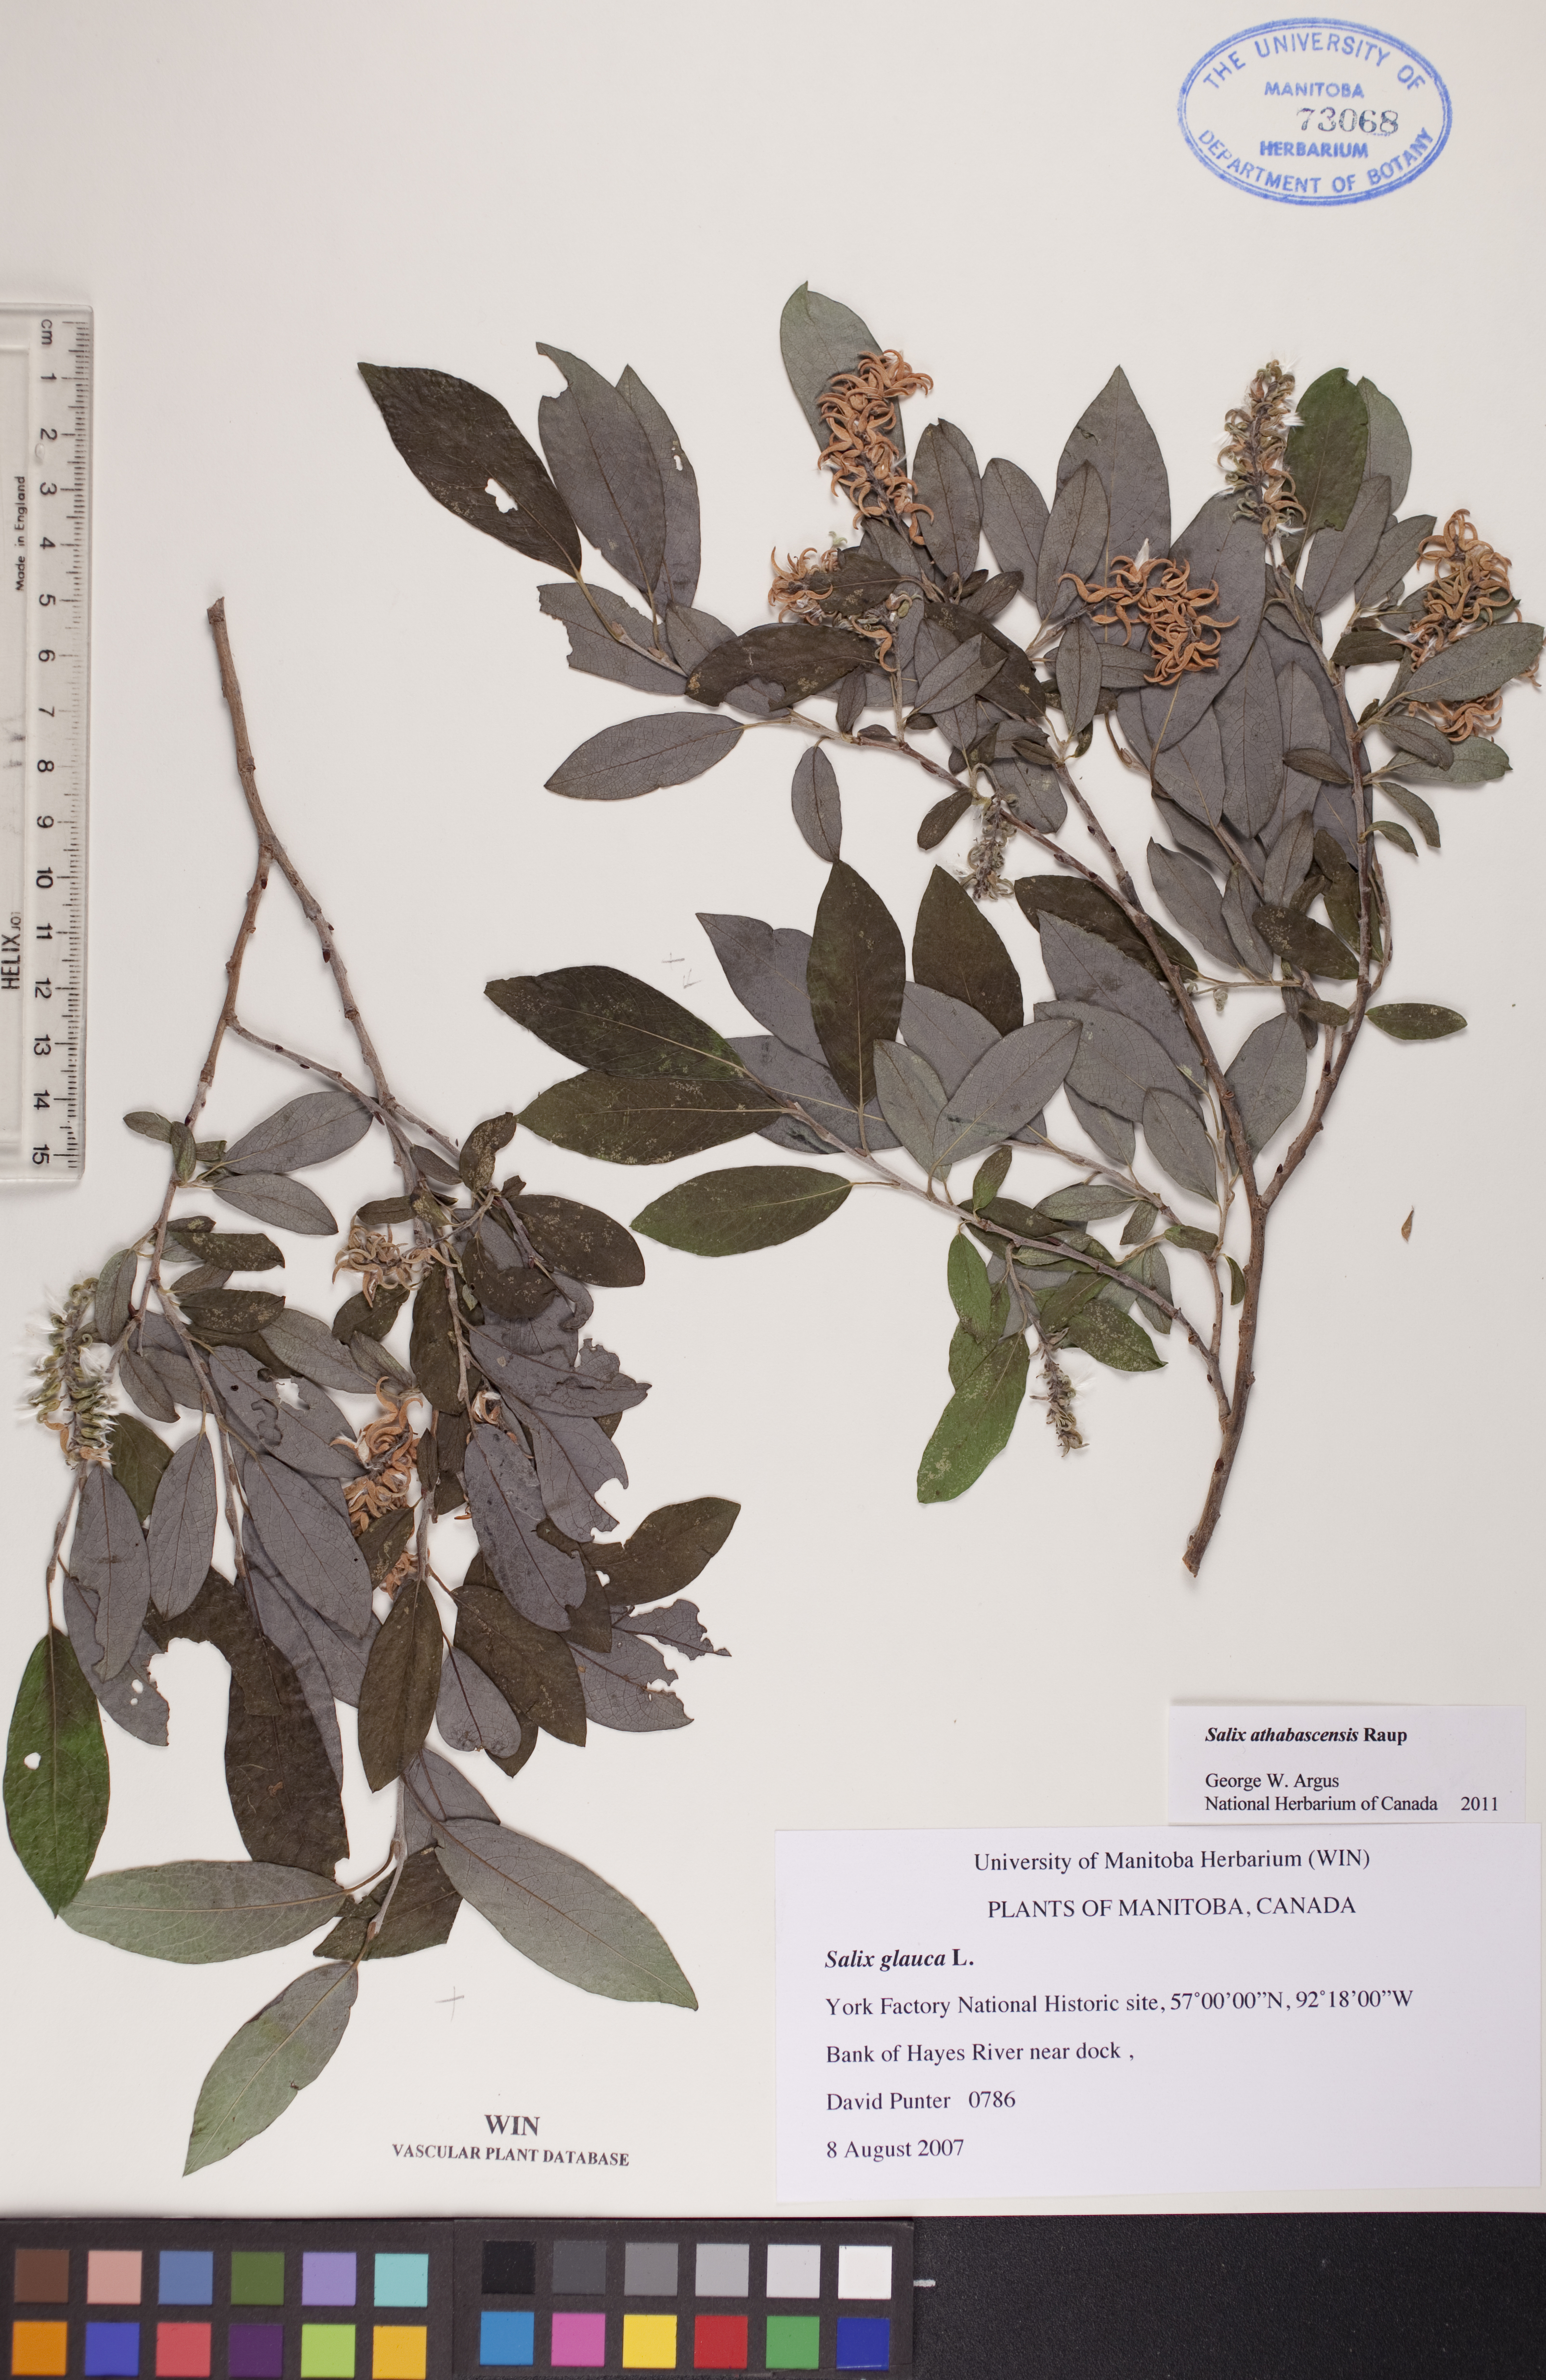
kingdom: Plantae
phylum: Tracheophyta
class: Magnoliopsida
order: Malpighiales
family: Salicaceae
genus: Salix
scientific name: Salix athabascensis
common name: Athabasca willow
